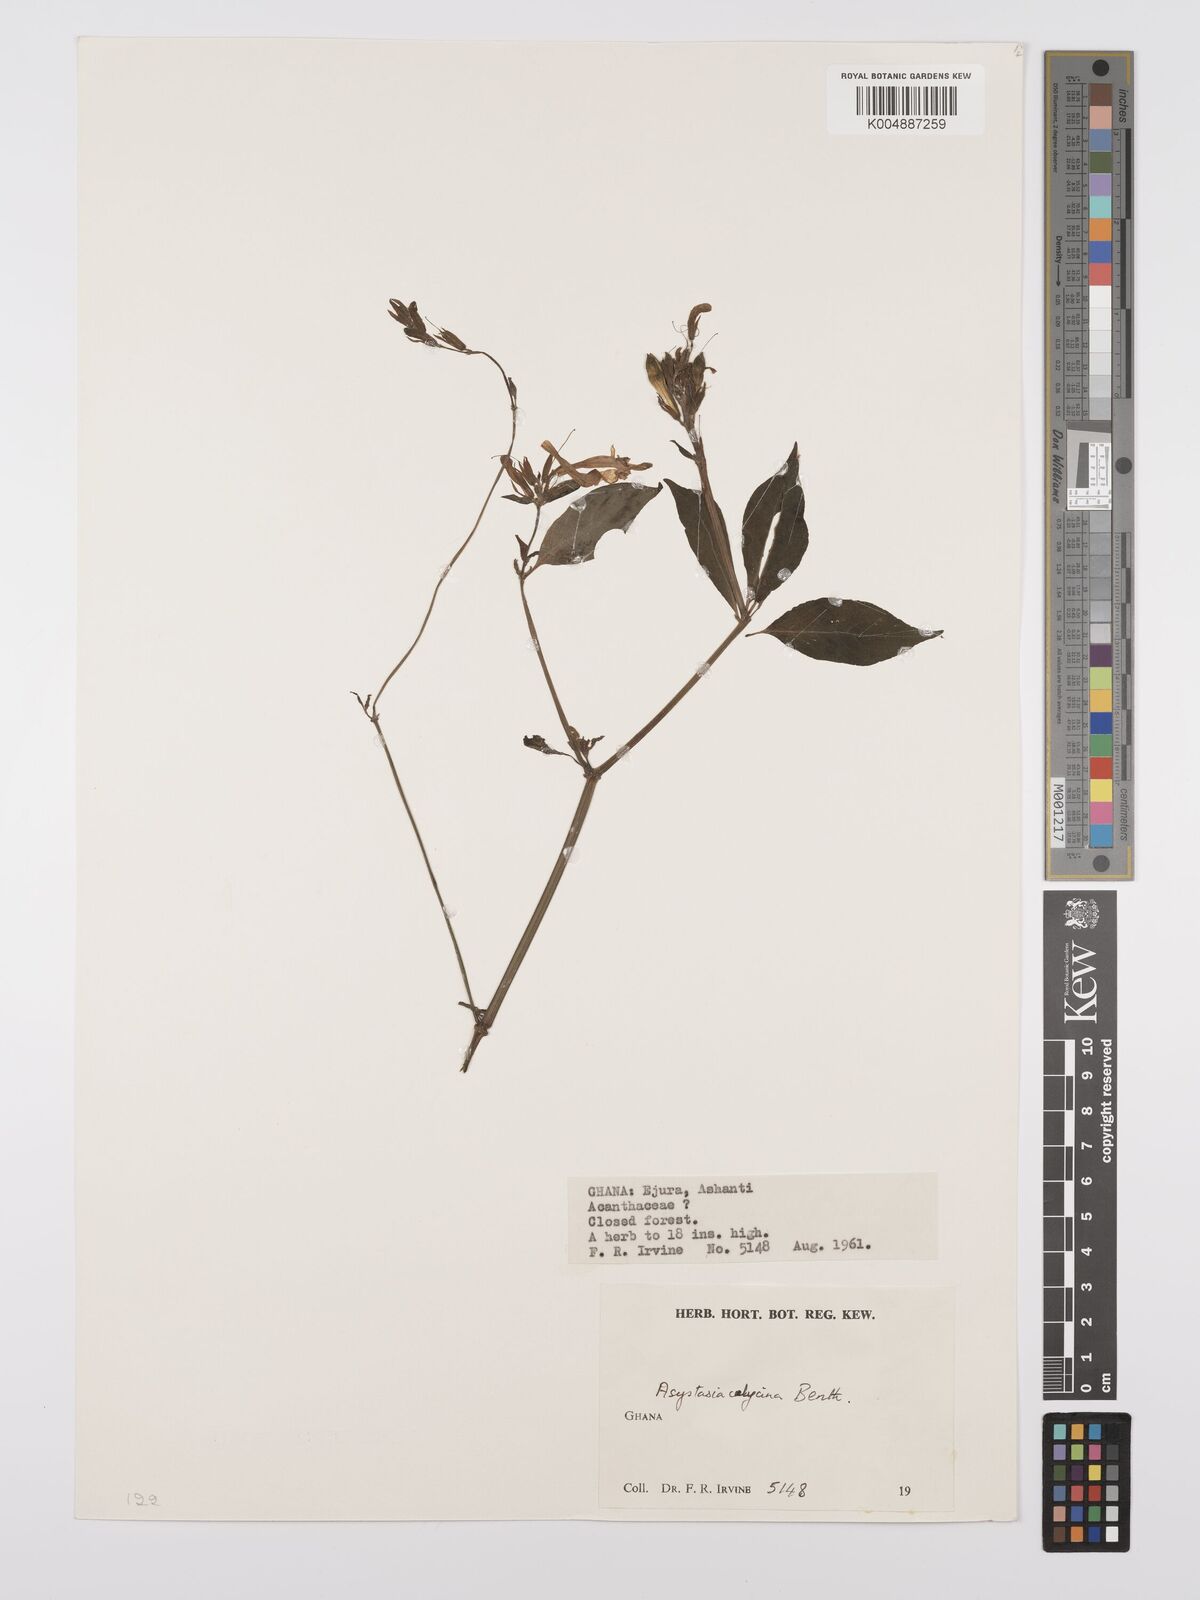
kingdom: Plantae
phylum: Tracheophyta
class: Magnoliopsida
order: Lamiales
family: Acanthaceae
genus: Asystasia
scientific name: Asystasia
